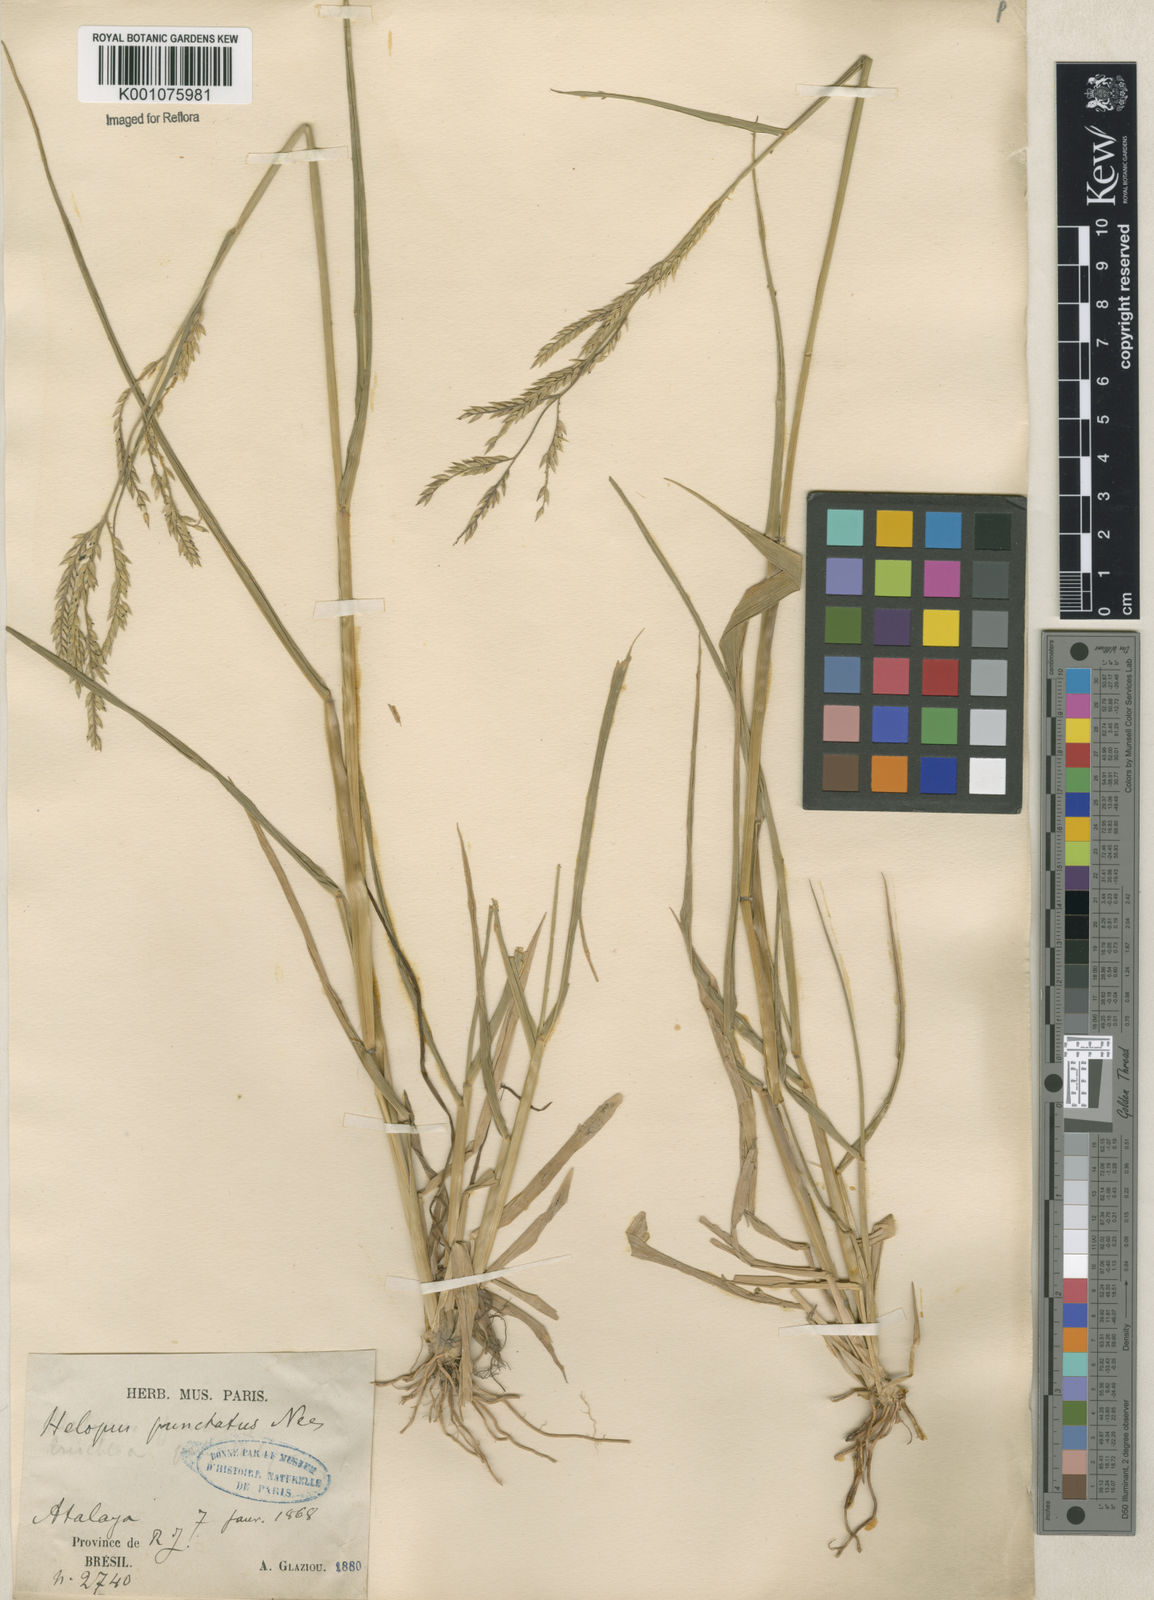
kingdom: Plantae
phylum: Tracheophyta
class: Liliopsida
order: Poales
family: Poaceae
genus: Eriochloa
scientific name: Eriochloa punctata
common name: Louisiana cupgrass
